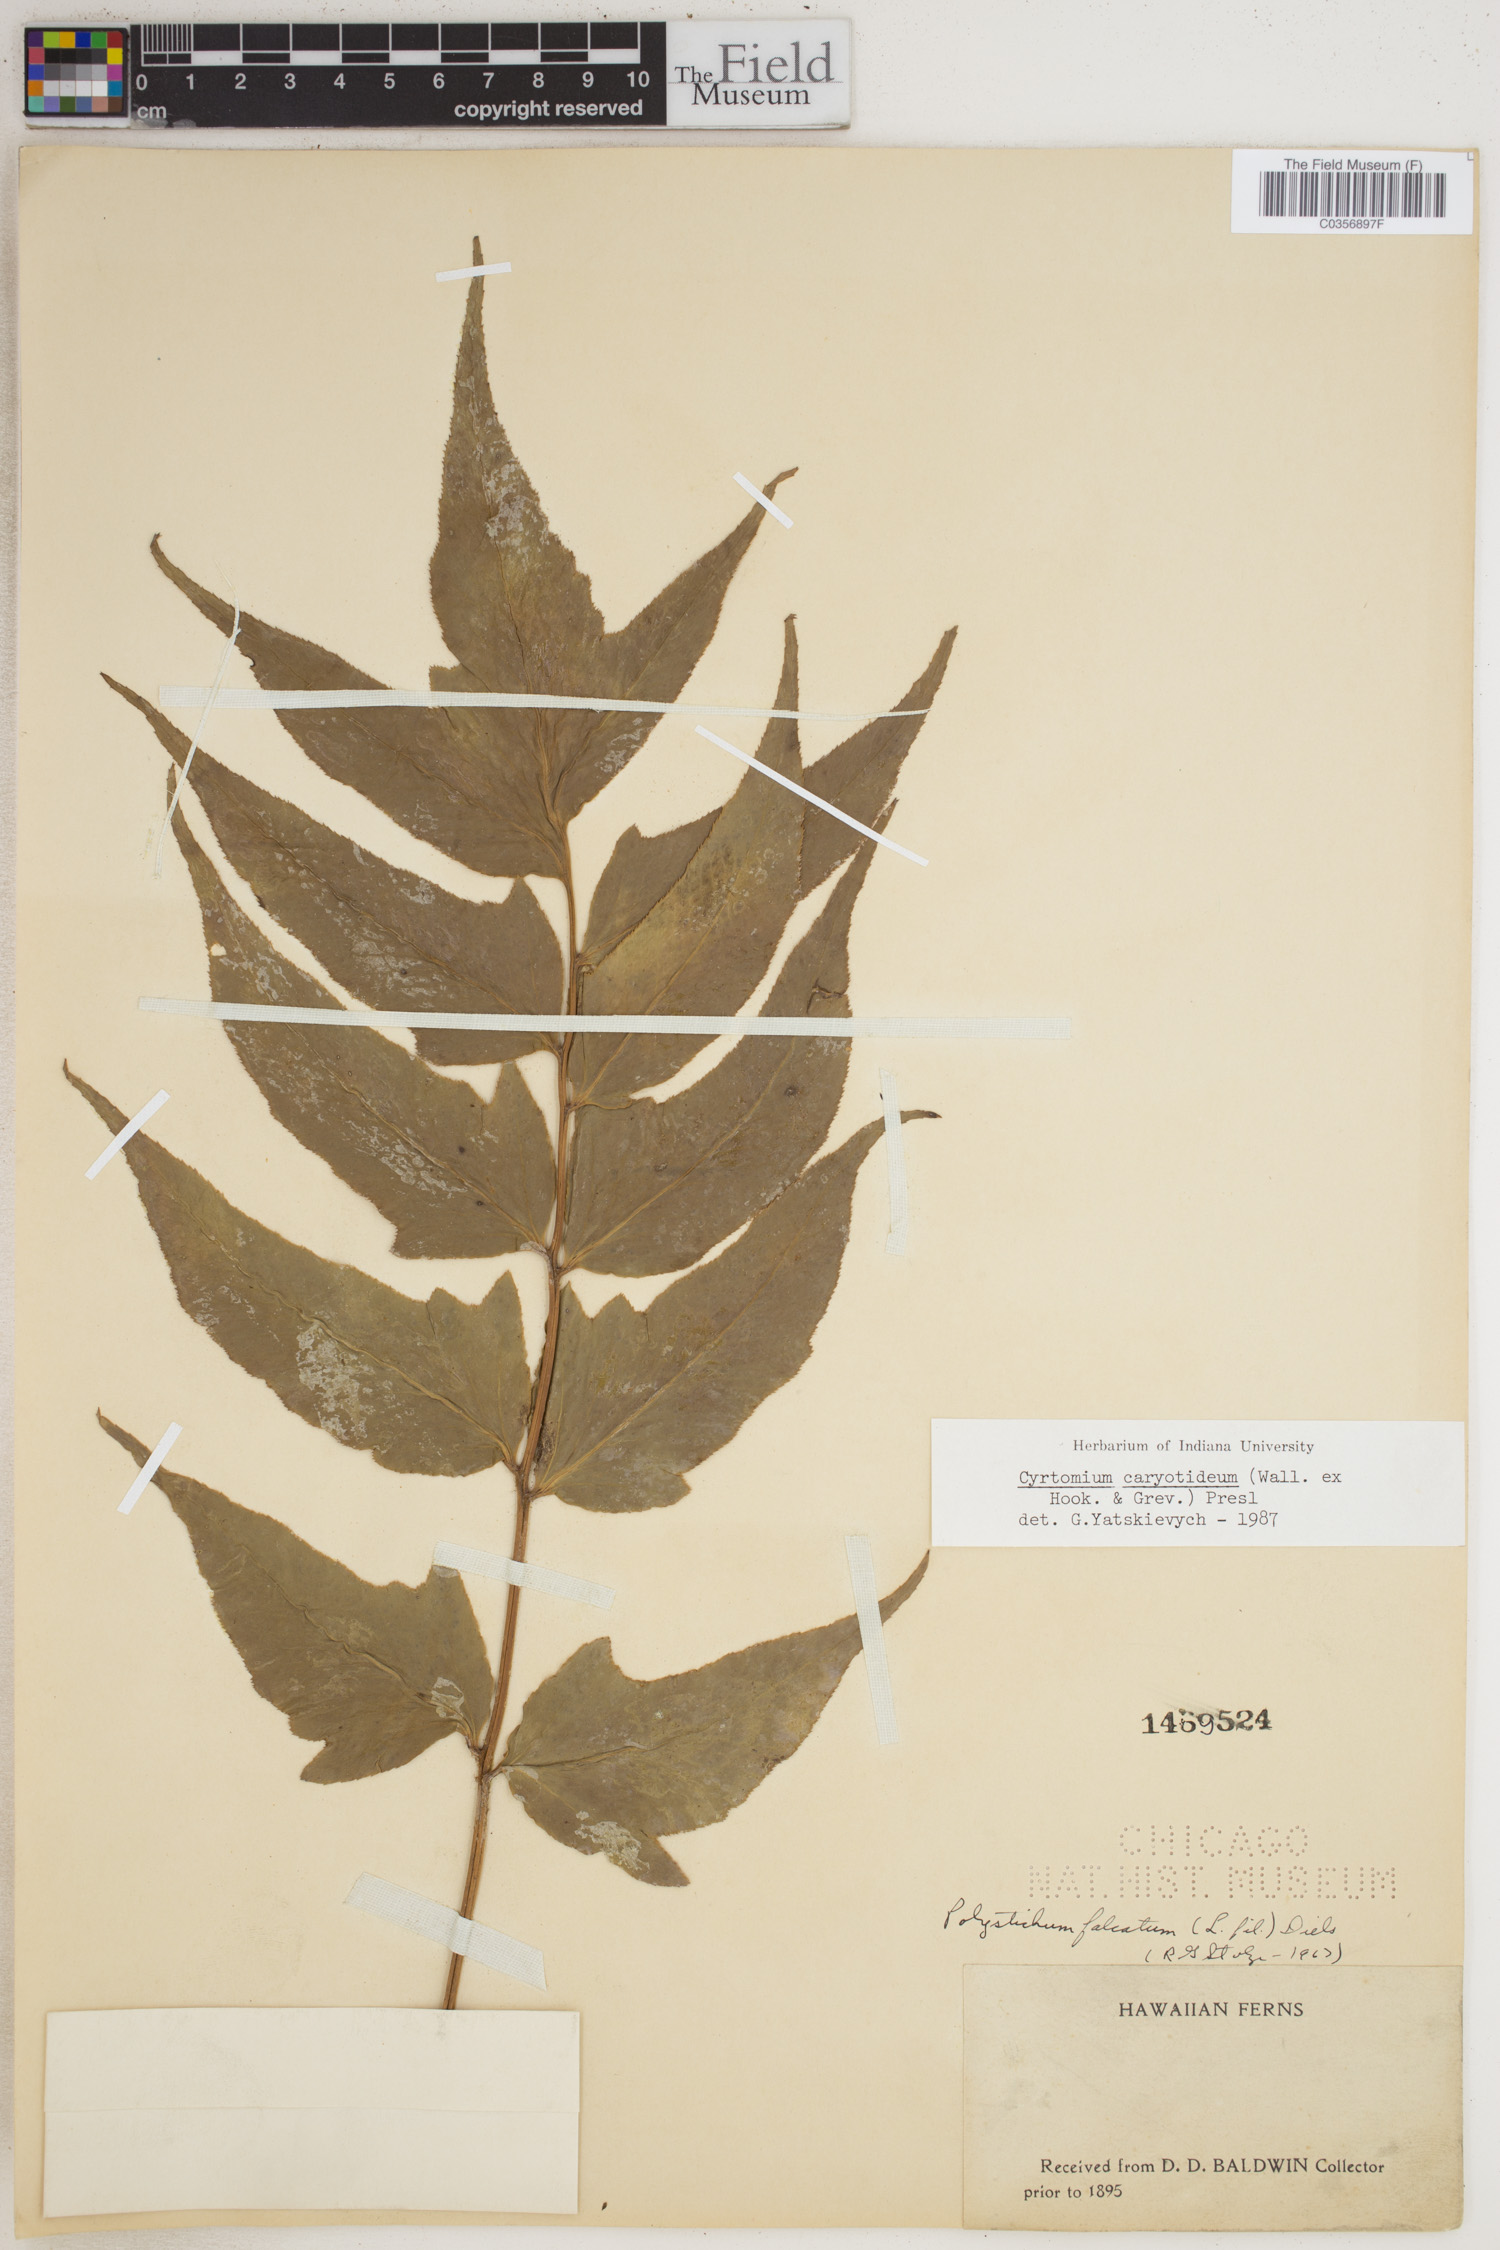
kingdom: Plantae
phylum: Tracheophyta
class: Polypodiopsida
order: Polypodiales
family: Dryopteridaceae
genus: Cyrtomium
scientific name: Cyrtomium caryotideum
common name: Asiatic holly fern
